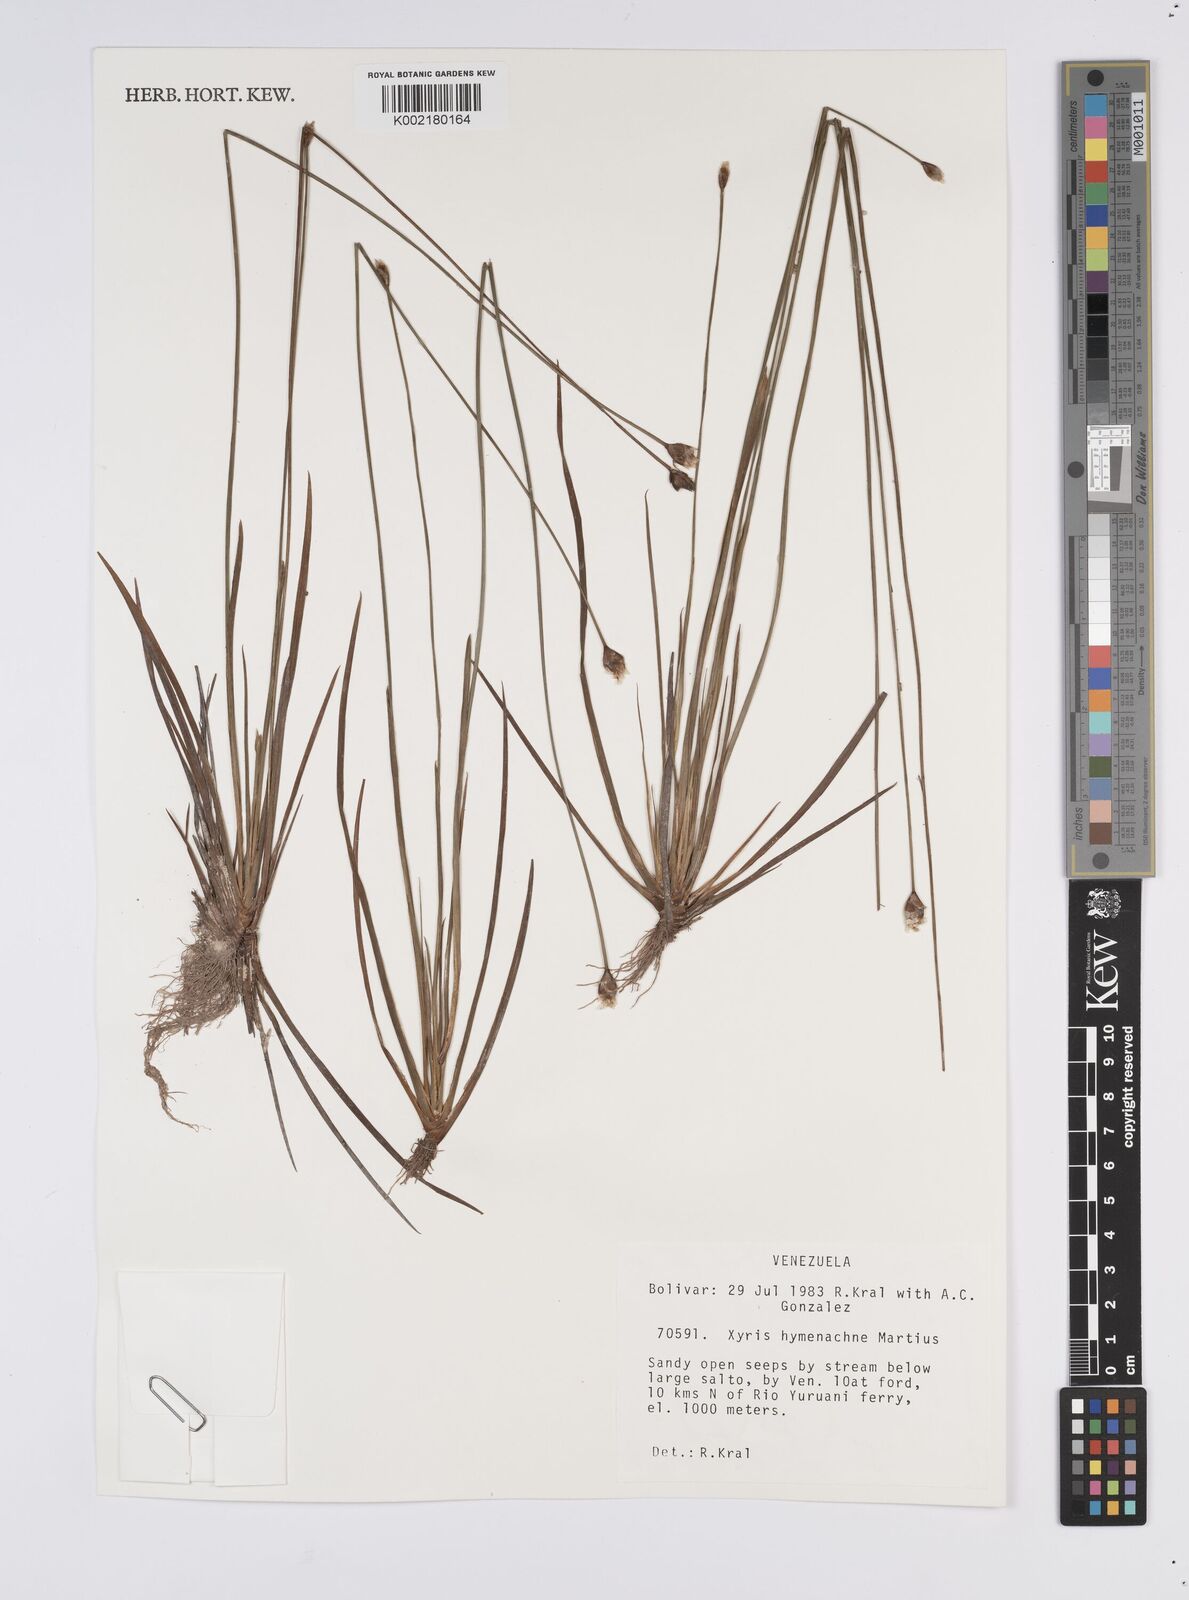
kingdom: Plantae
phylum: Tracheophyta
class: Liliopsida
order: Poales
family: Xyridaceae
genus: Xyris
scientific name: Xyris hymenachne
